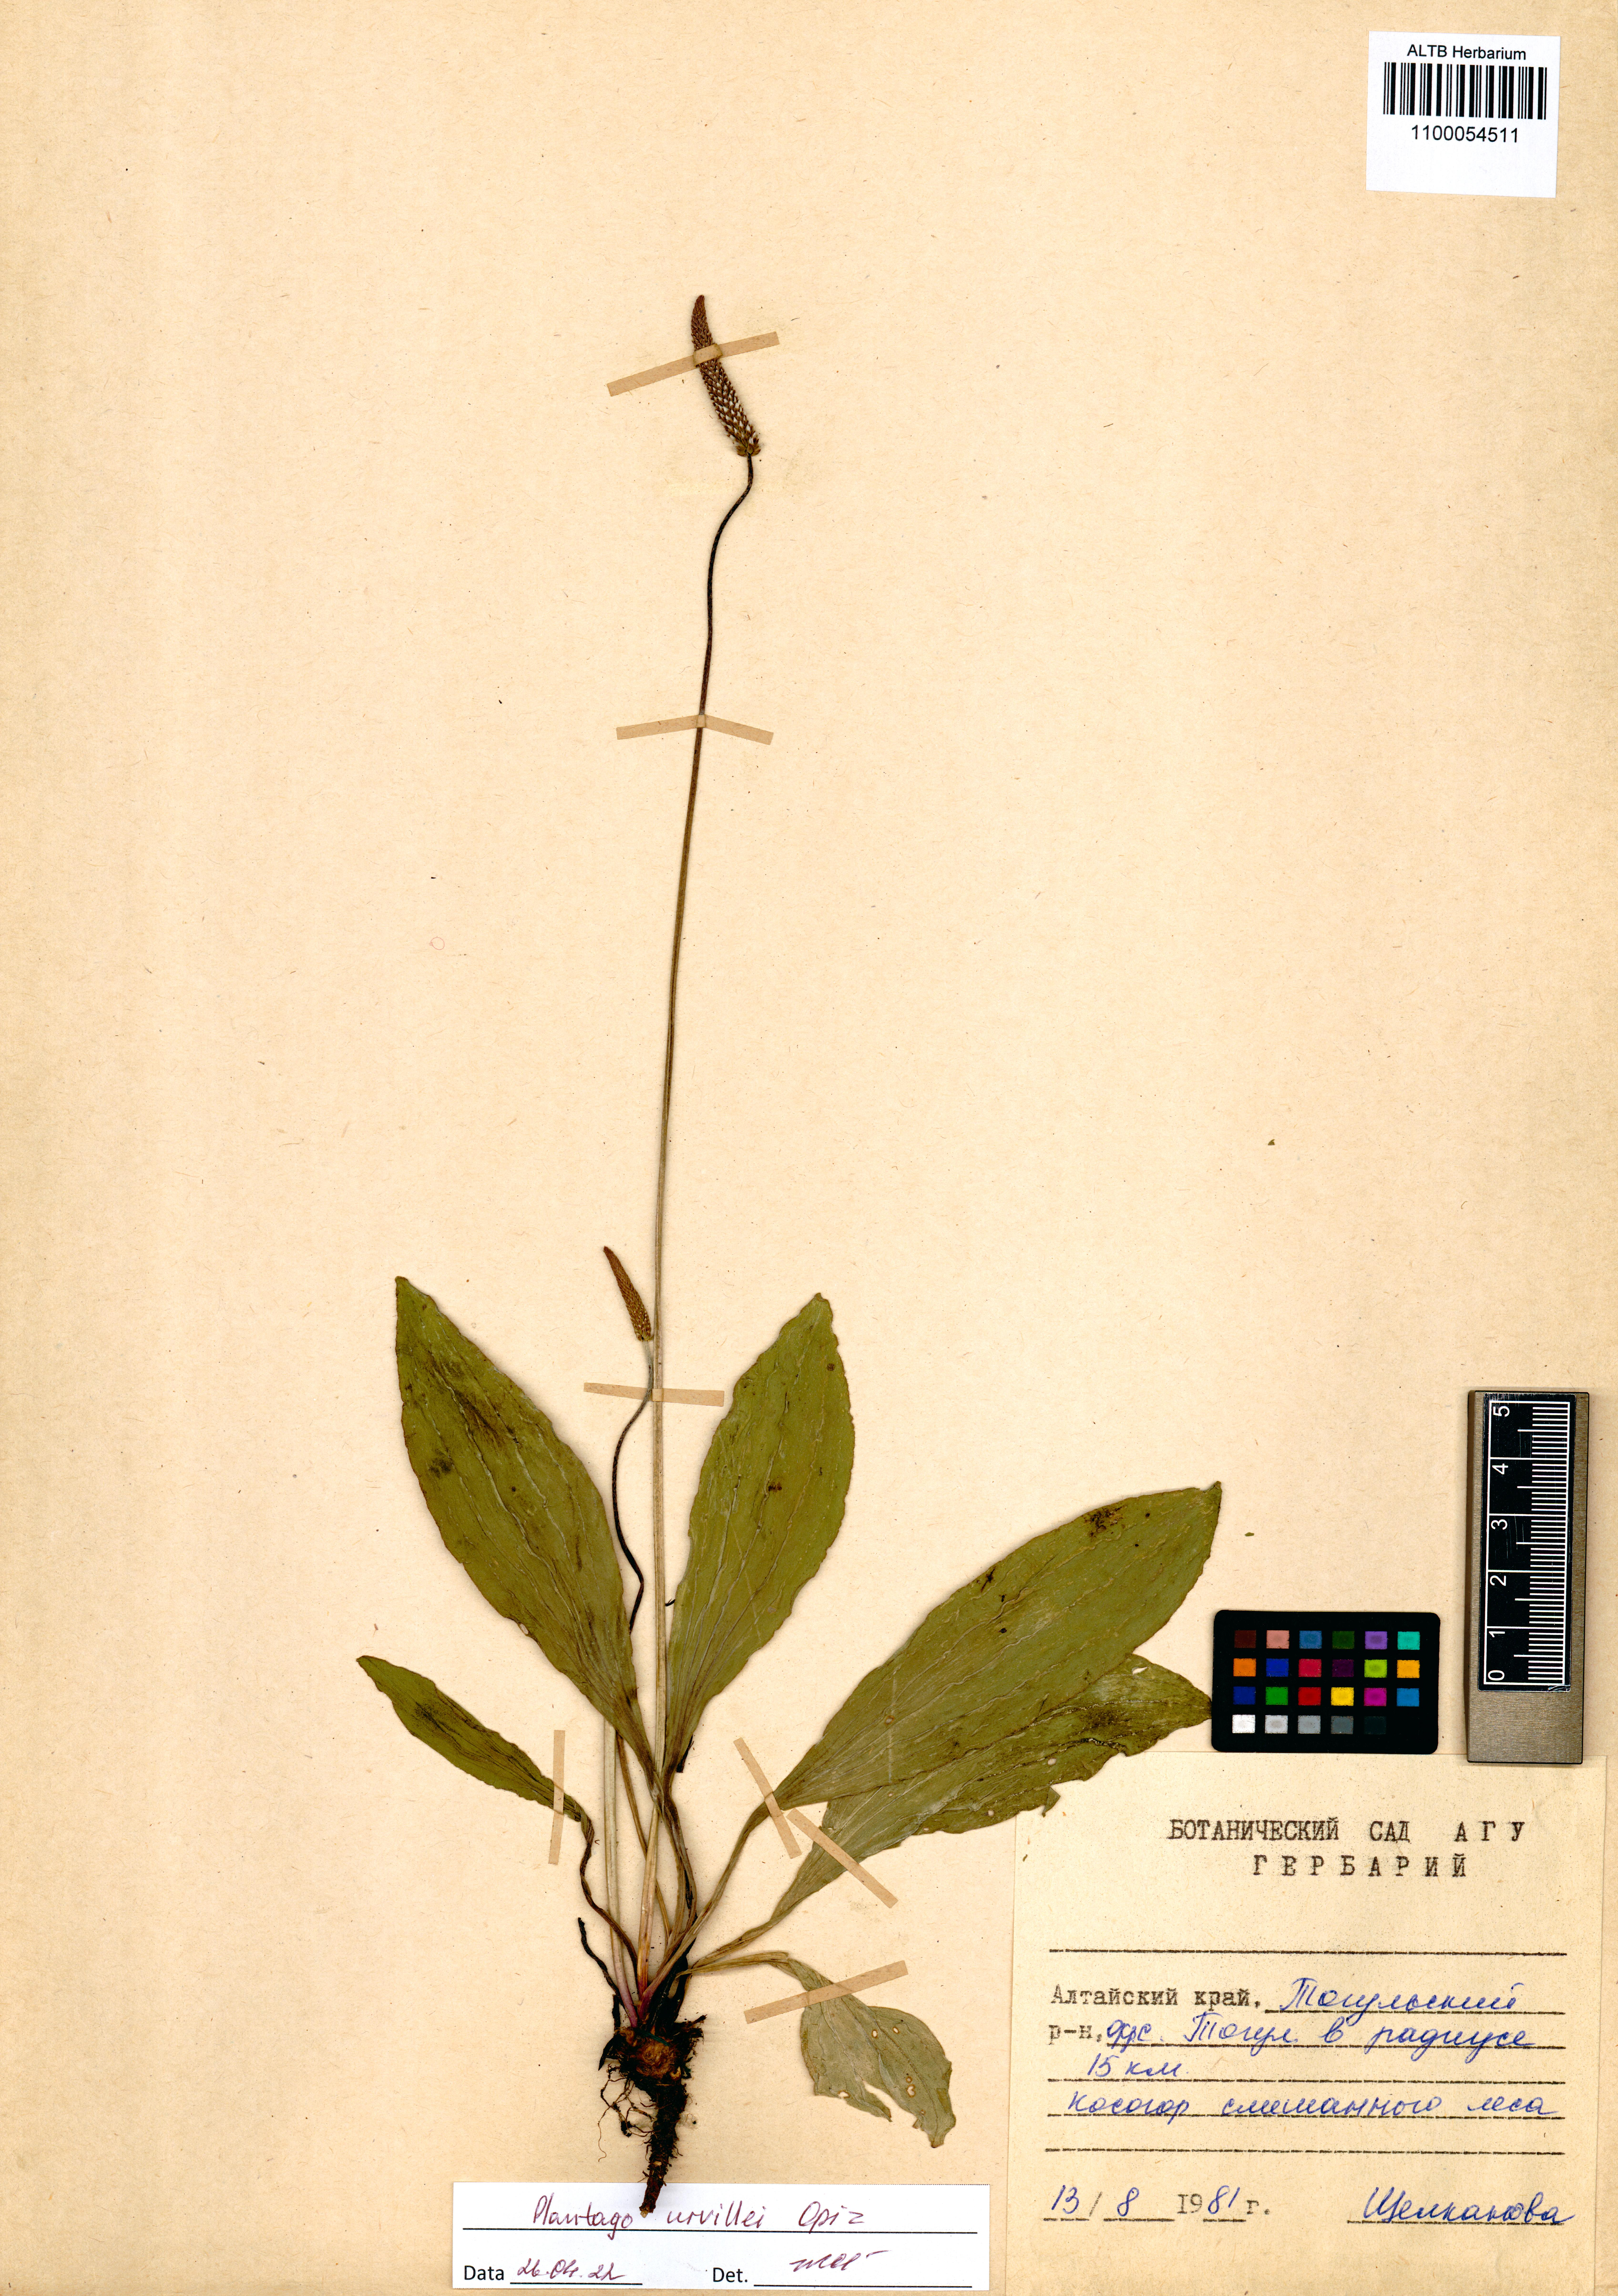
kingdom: Plantae
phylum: Tracheophyta
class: Magnoliopsida
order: Lamiales
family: Plantaginaceae
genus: Plantago
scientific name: Plantago urvillei
